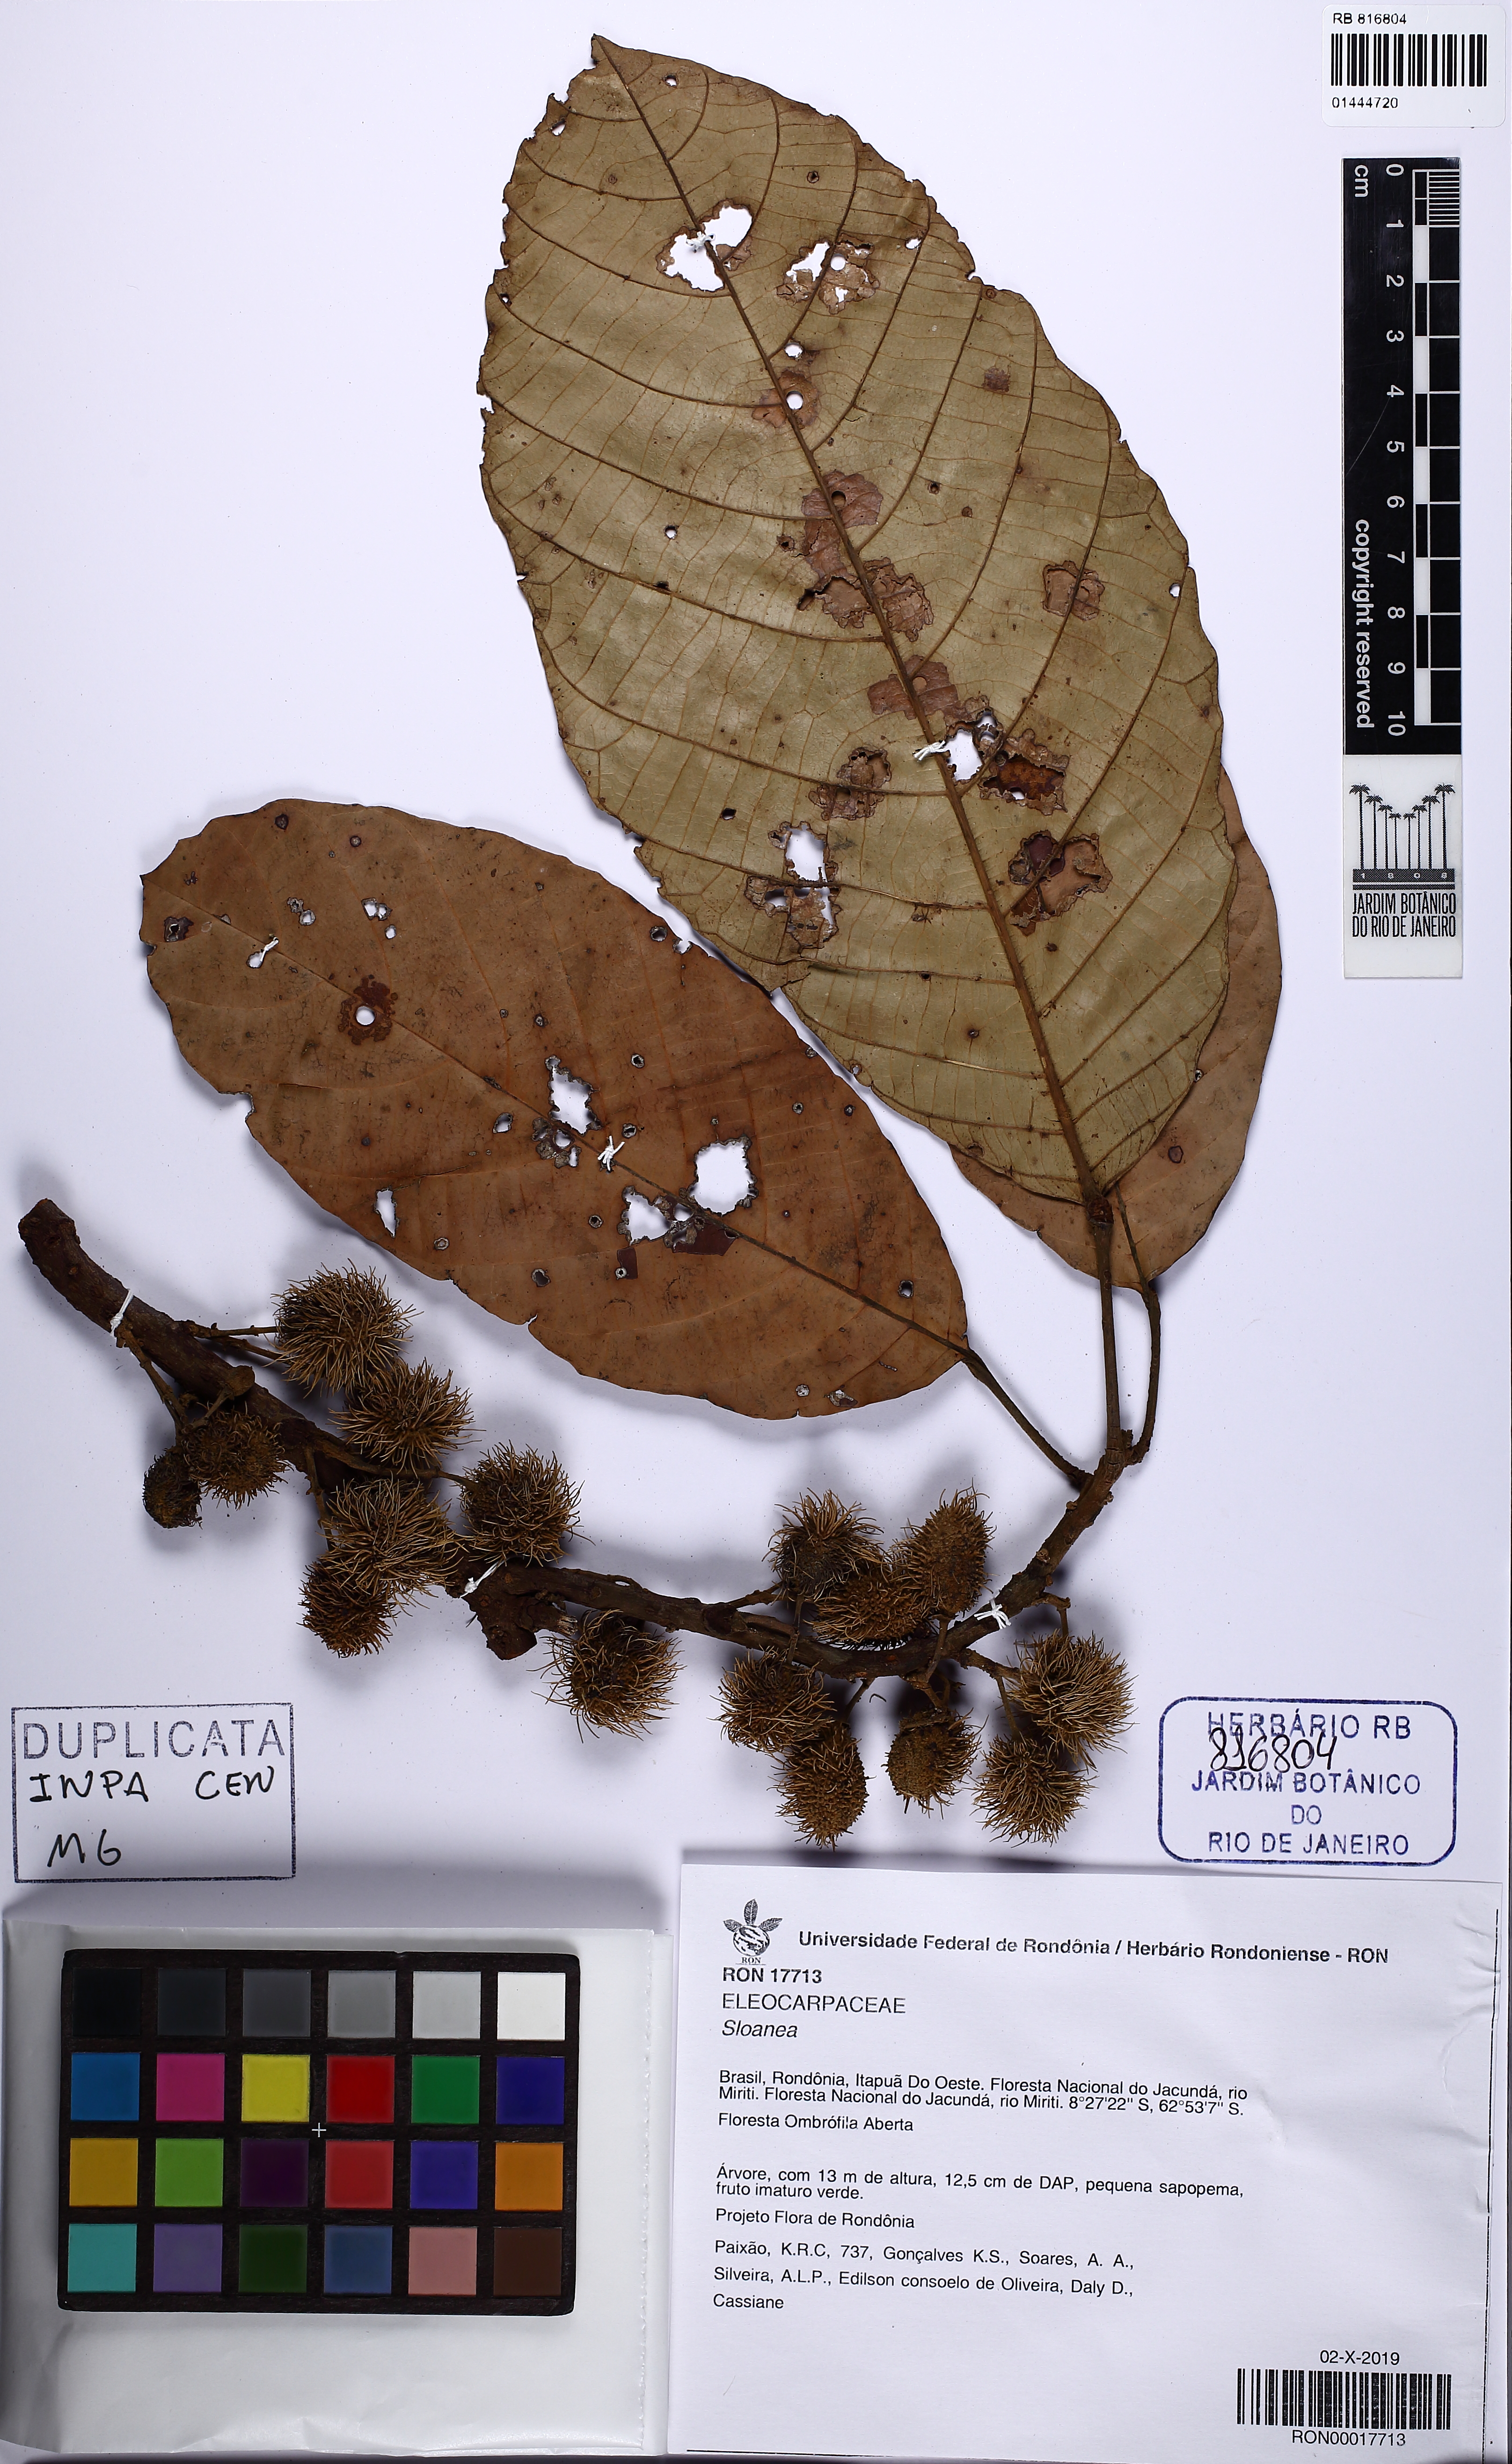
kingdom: Plantae
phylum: Tracheophyta
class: Magnoliopsida
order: Oxalidales
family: Elaeocarpaceae
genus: Sloanea
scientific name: Sloanea
